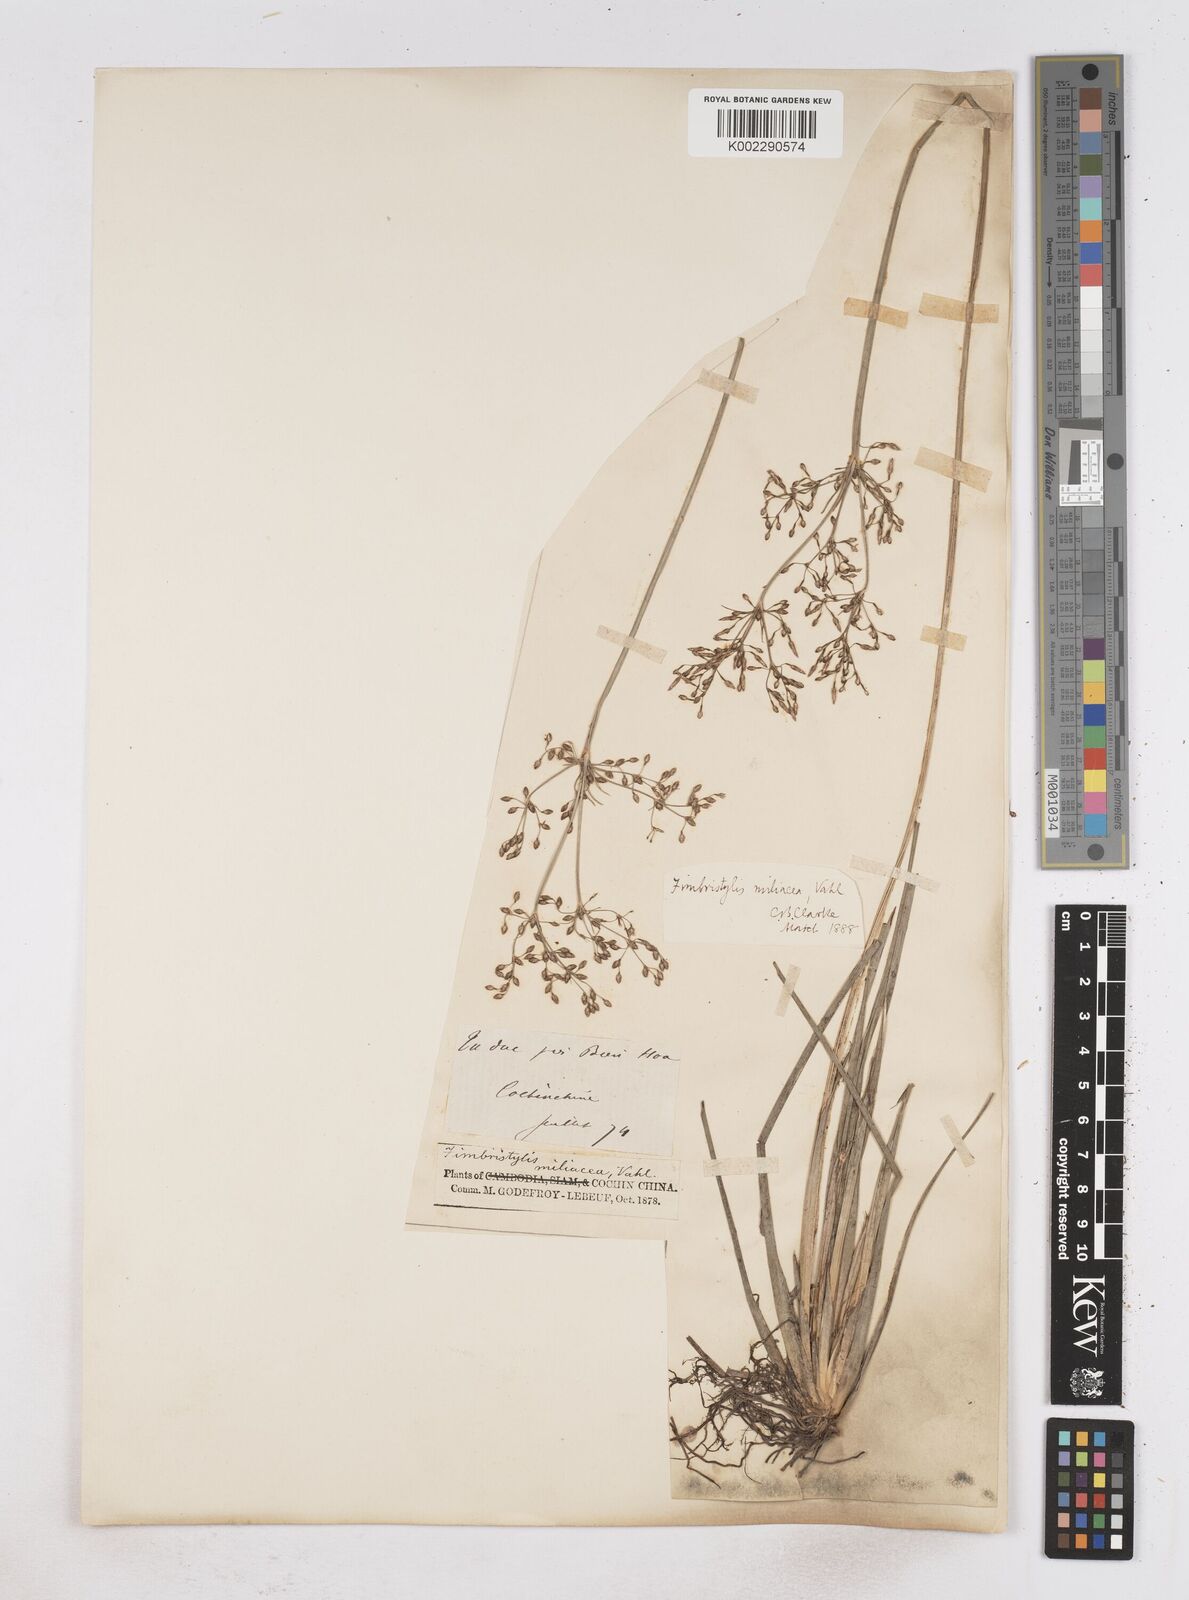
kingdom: Plantae
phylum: Tracheophyta
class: Liliopsida
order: Poales
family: Cyperaceae
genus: Fimbristylis
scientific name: Fimbristylis littoralis
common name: Fimbry
